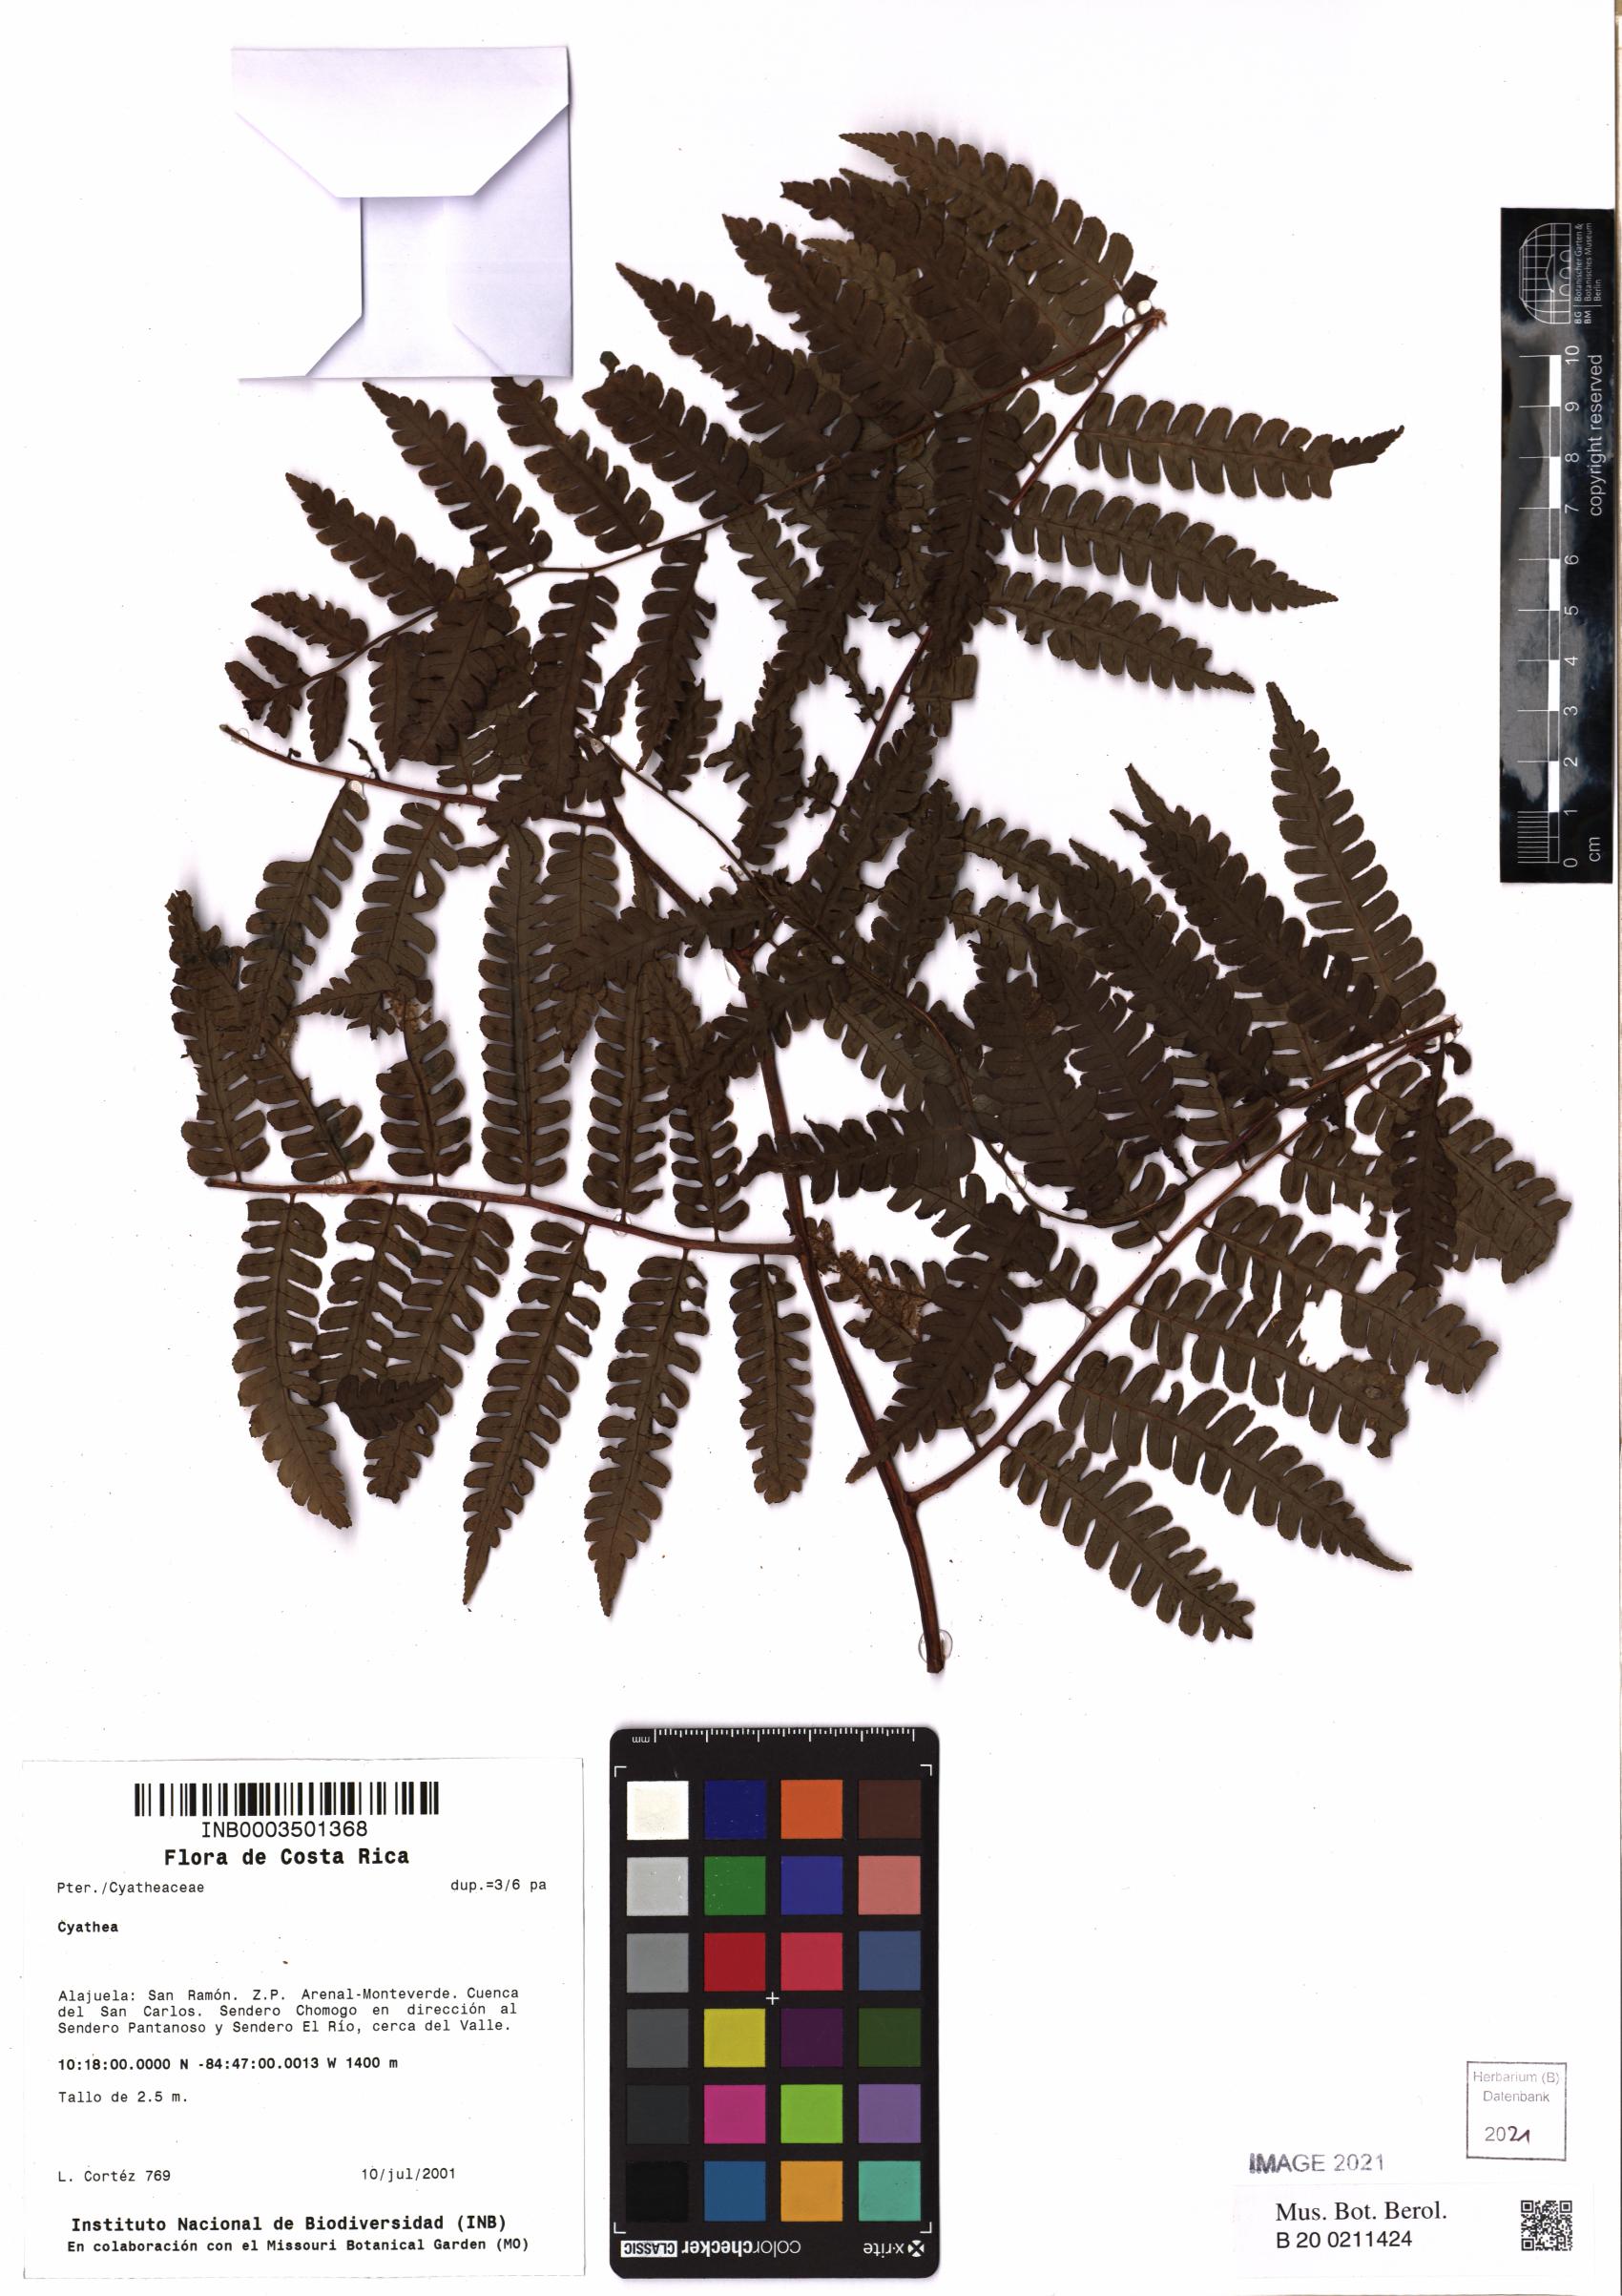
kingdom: Plantae
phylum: Tracheophyta
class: Polypodiopsida
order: Cyatheales
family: Cyatheaceae
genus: Cyathea
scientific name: Cyathea
